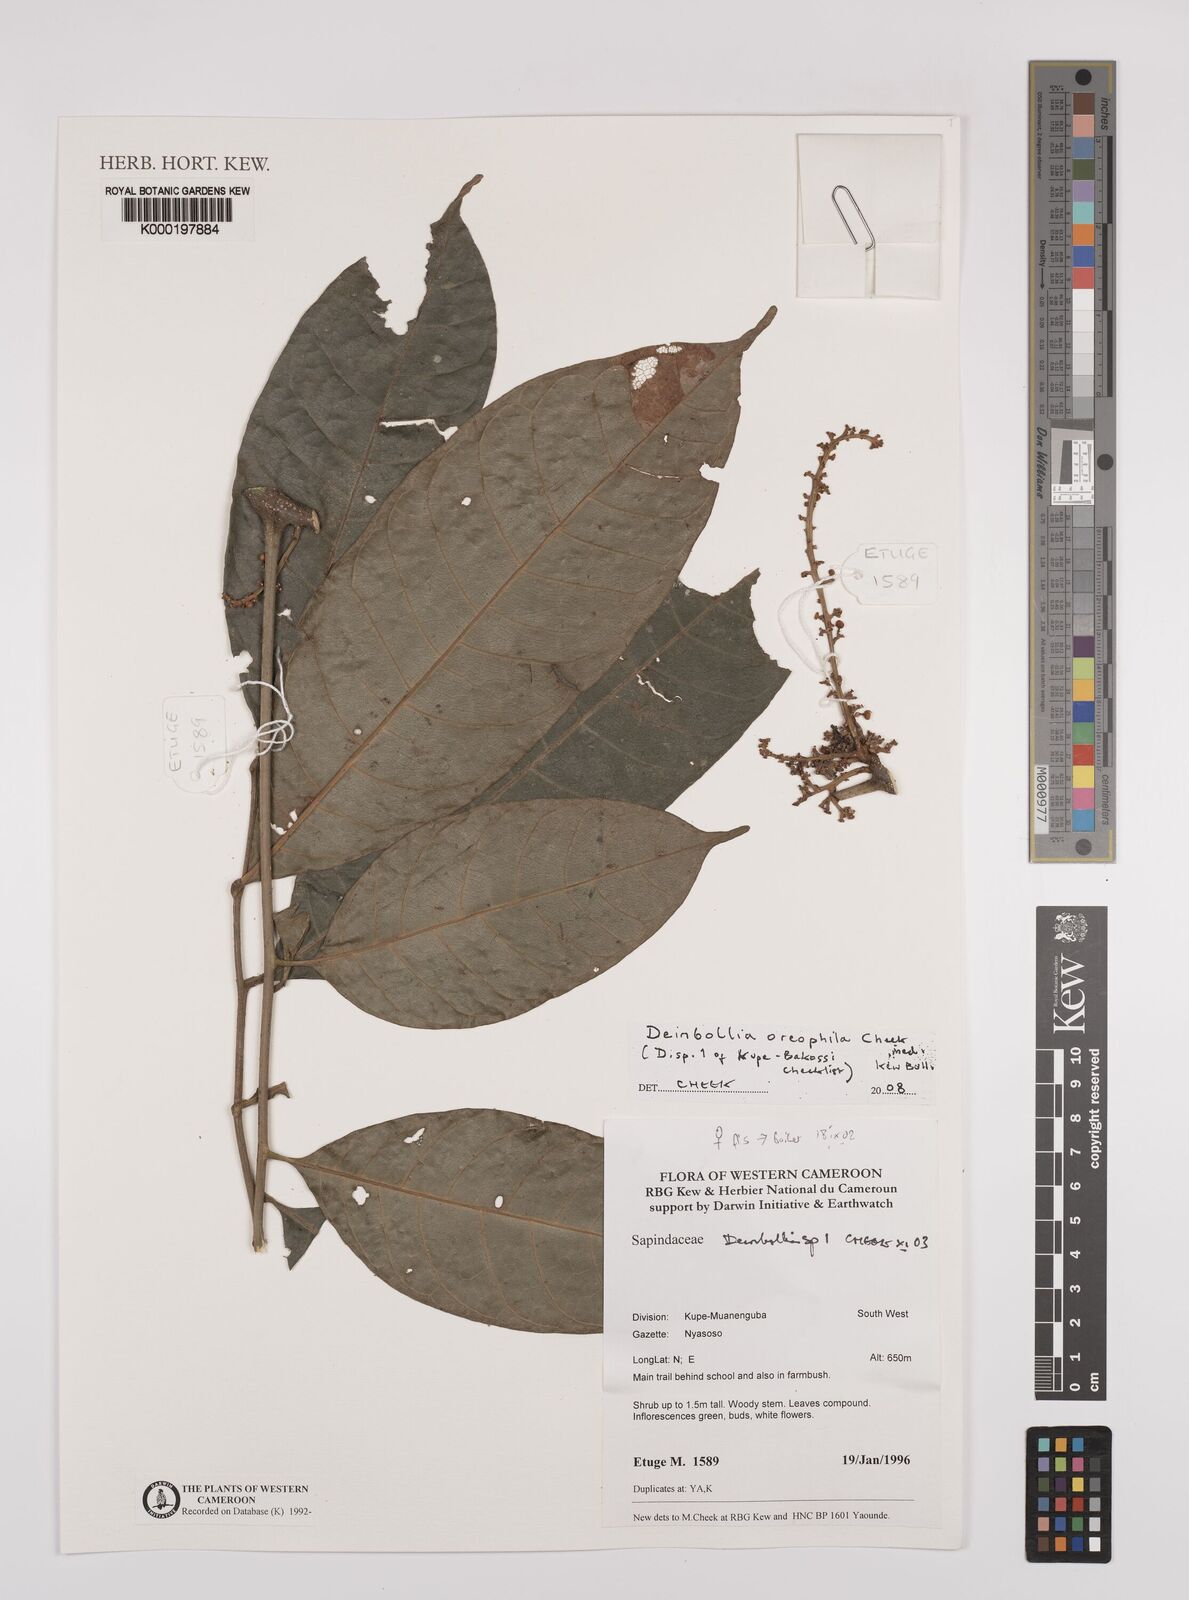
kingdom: Plantae
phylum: Tracheophyta
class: Magnoliopsida
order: Sapindales
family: Sapindaceae
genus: Deinbollia
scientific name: Deinbollia oreophila
